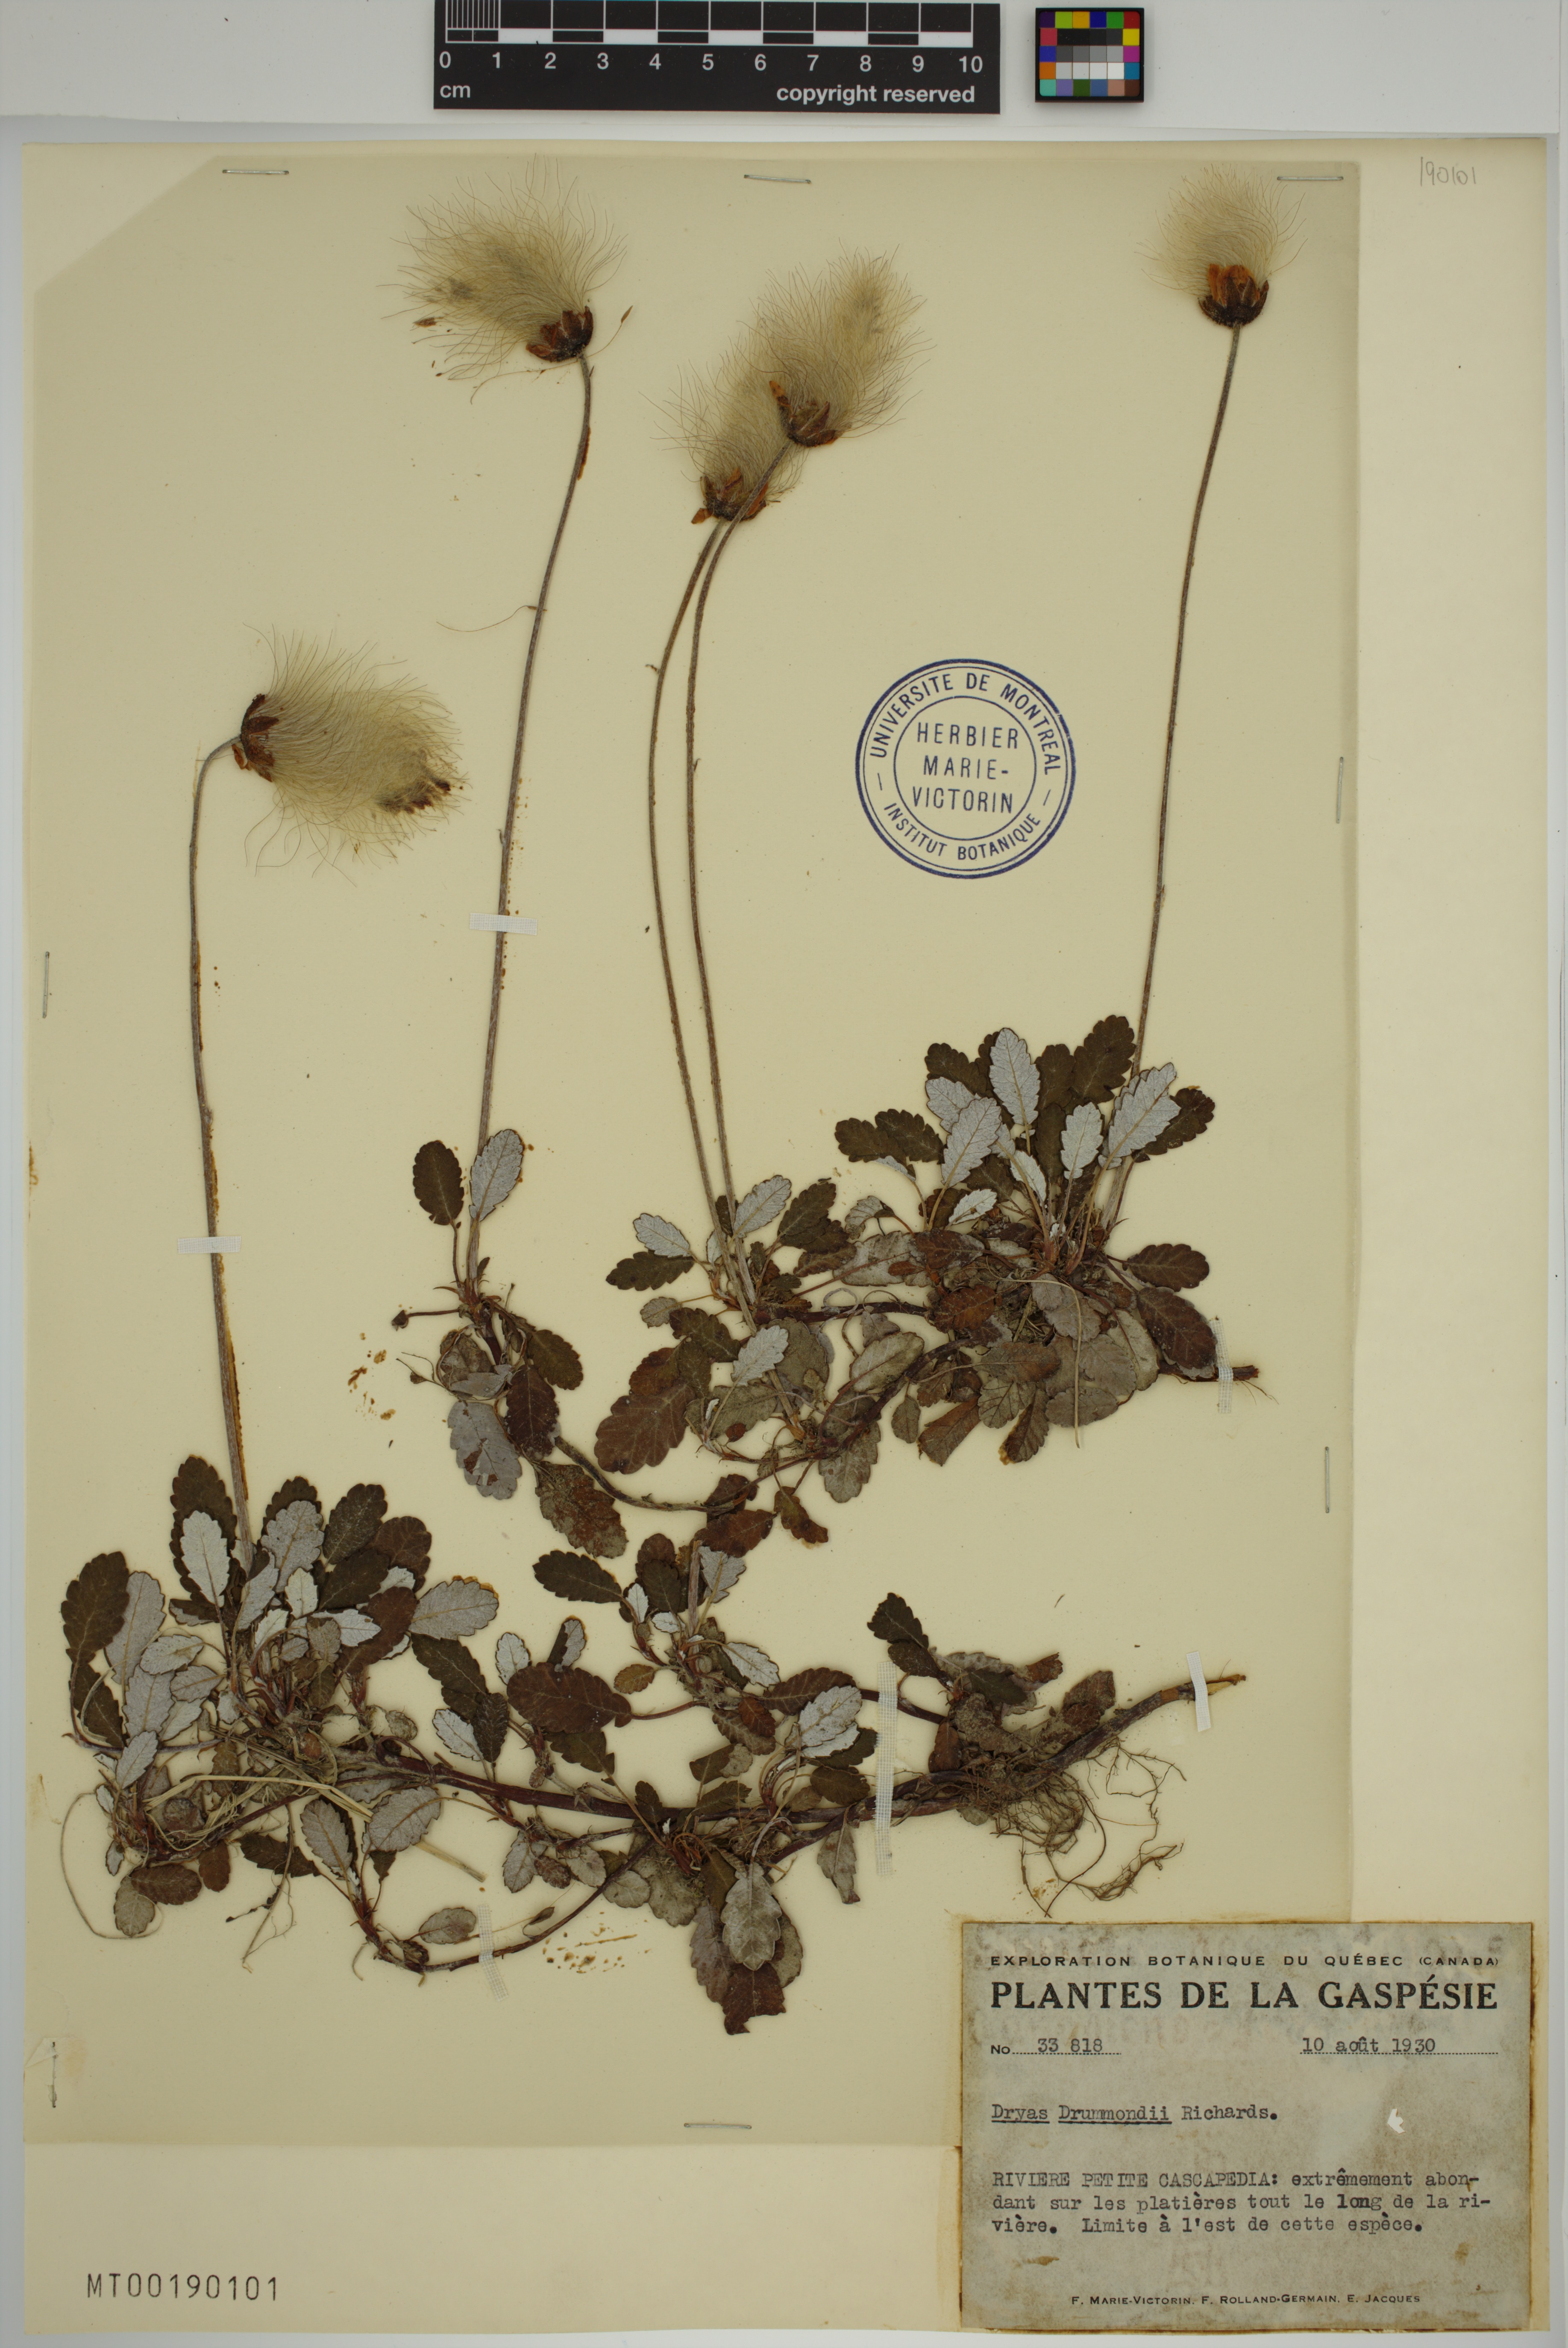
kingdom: Plantae
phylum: Tracheophyta
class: Magnoliopsida
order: Rosales
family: Rosaceae
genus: Dryas
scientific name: Dryas drummondii
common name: Drummond's dryad
